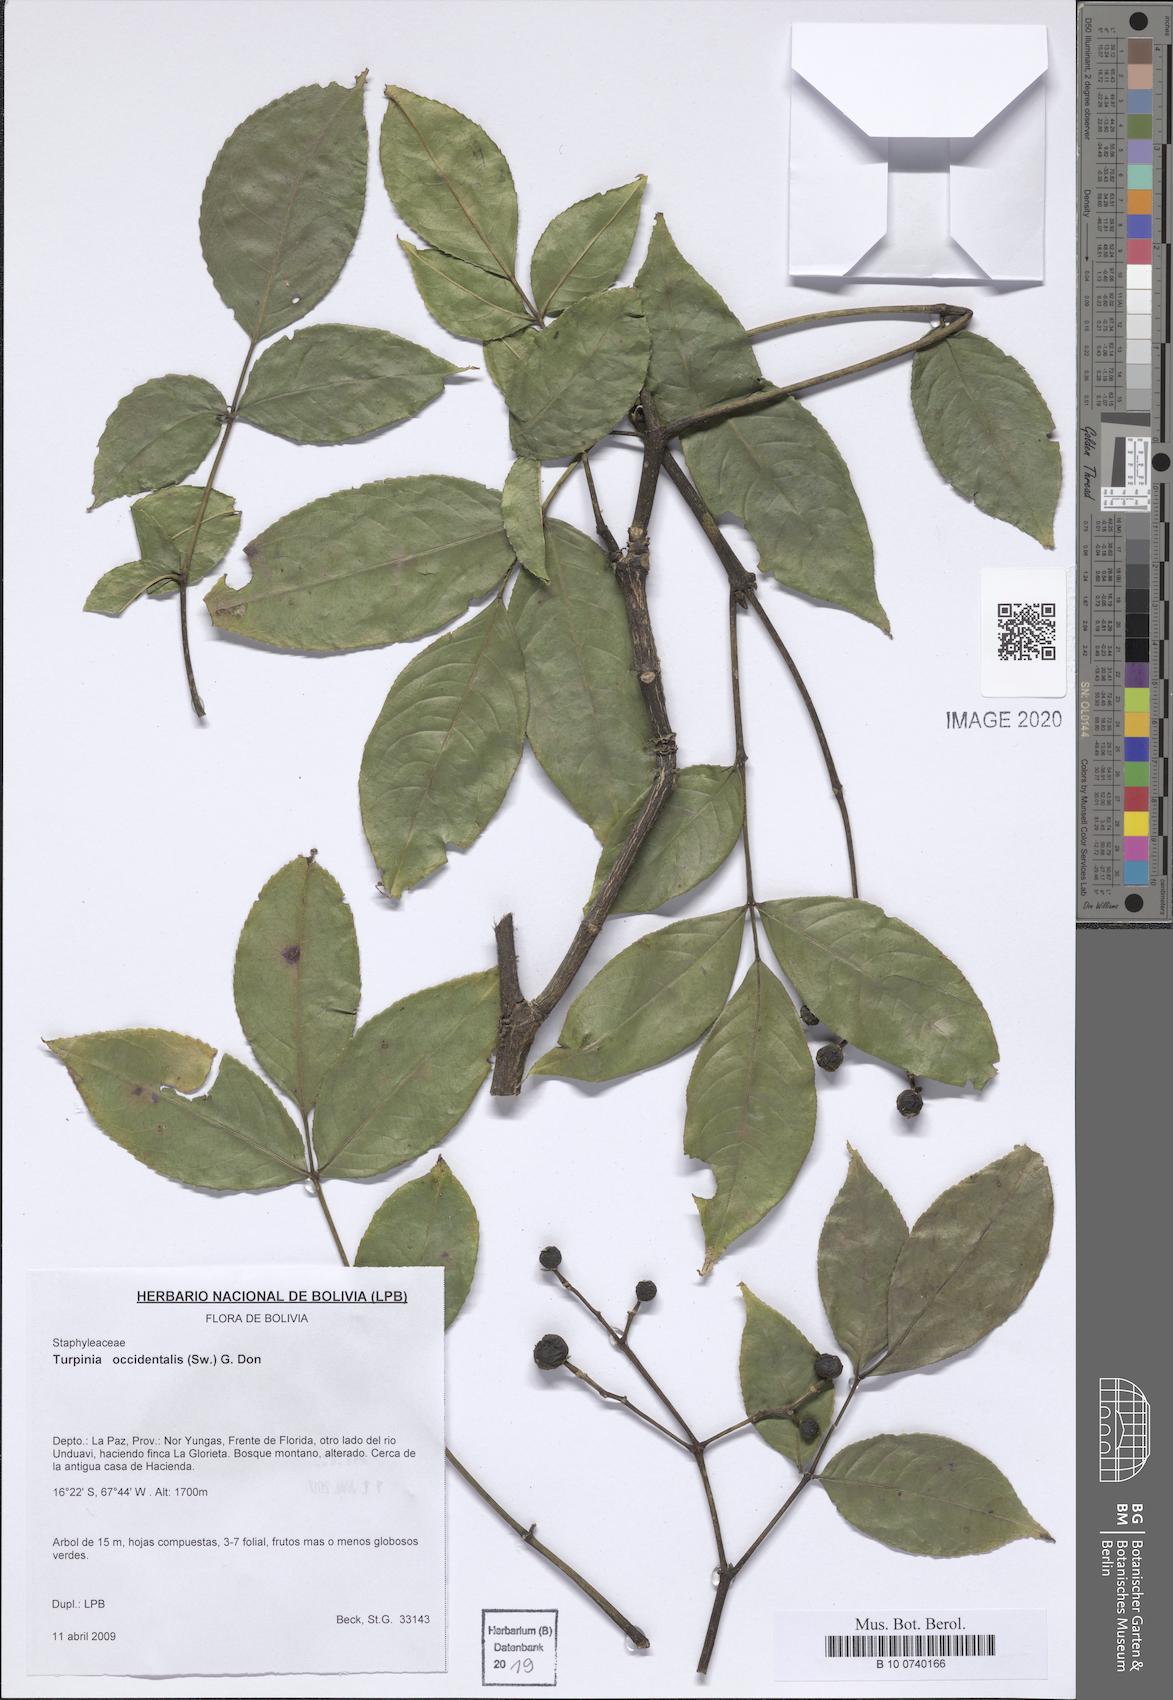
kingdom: Plantae
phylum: Tracheophyta
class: Magnoliopsida
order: Crossosomatales
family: Staphyleaceae
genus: Turpinia
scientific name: Turpinia occidentalis
